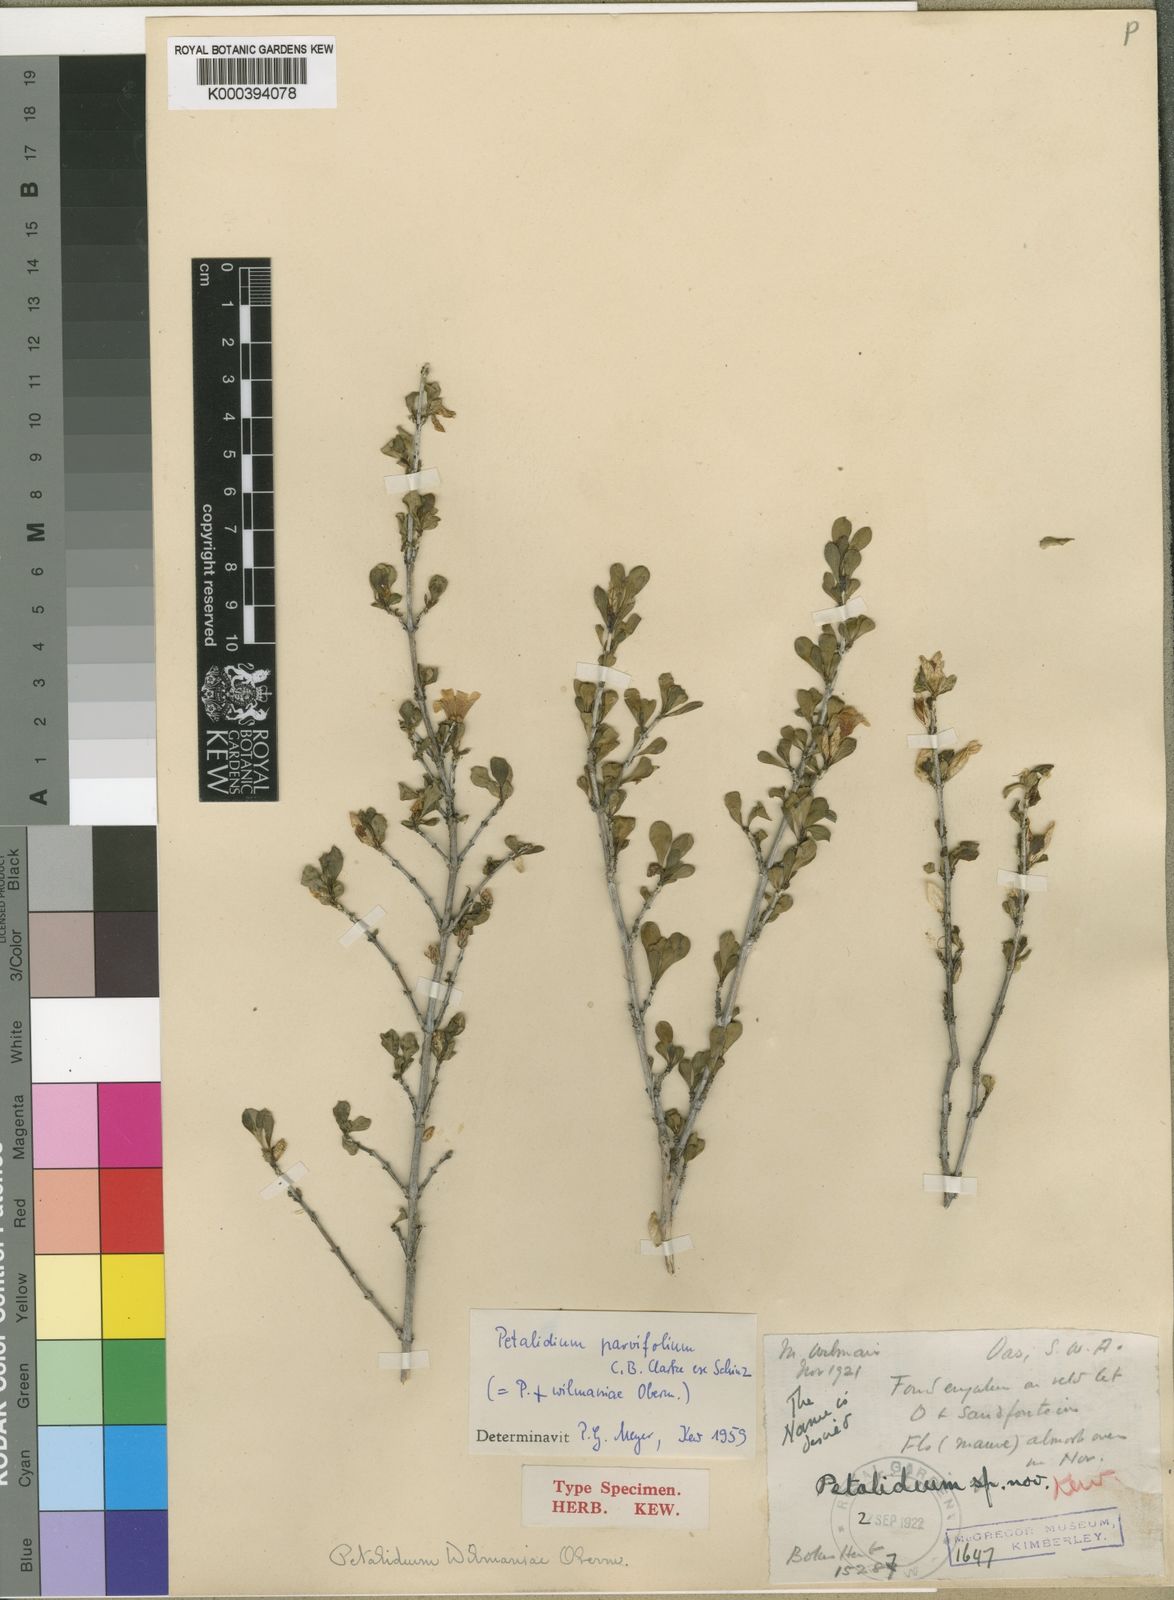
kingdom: Plantae
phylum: Tracheophyta
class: Magnoliopsida
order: Lamiales
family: Acanthaceae
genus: Petalidium
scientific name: Petalidium
